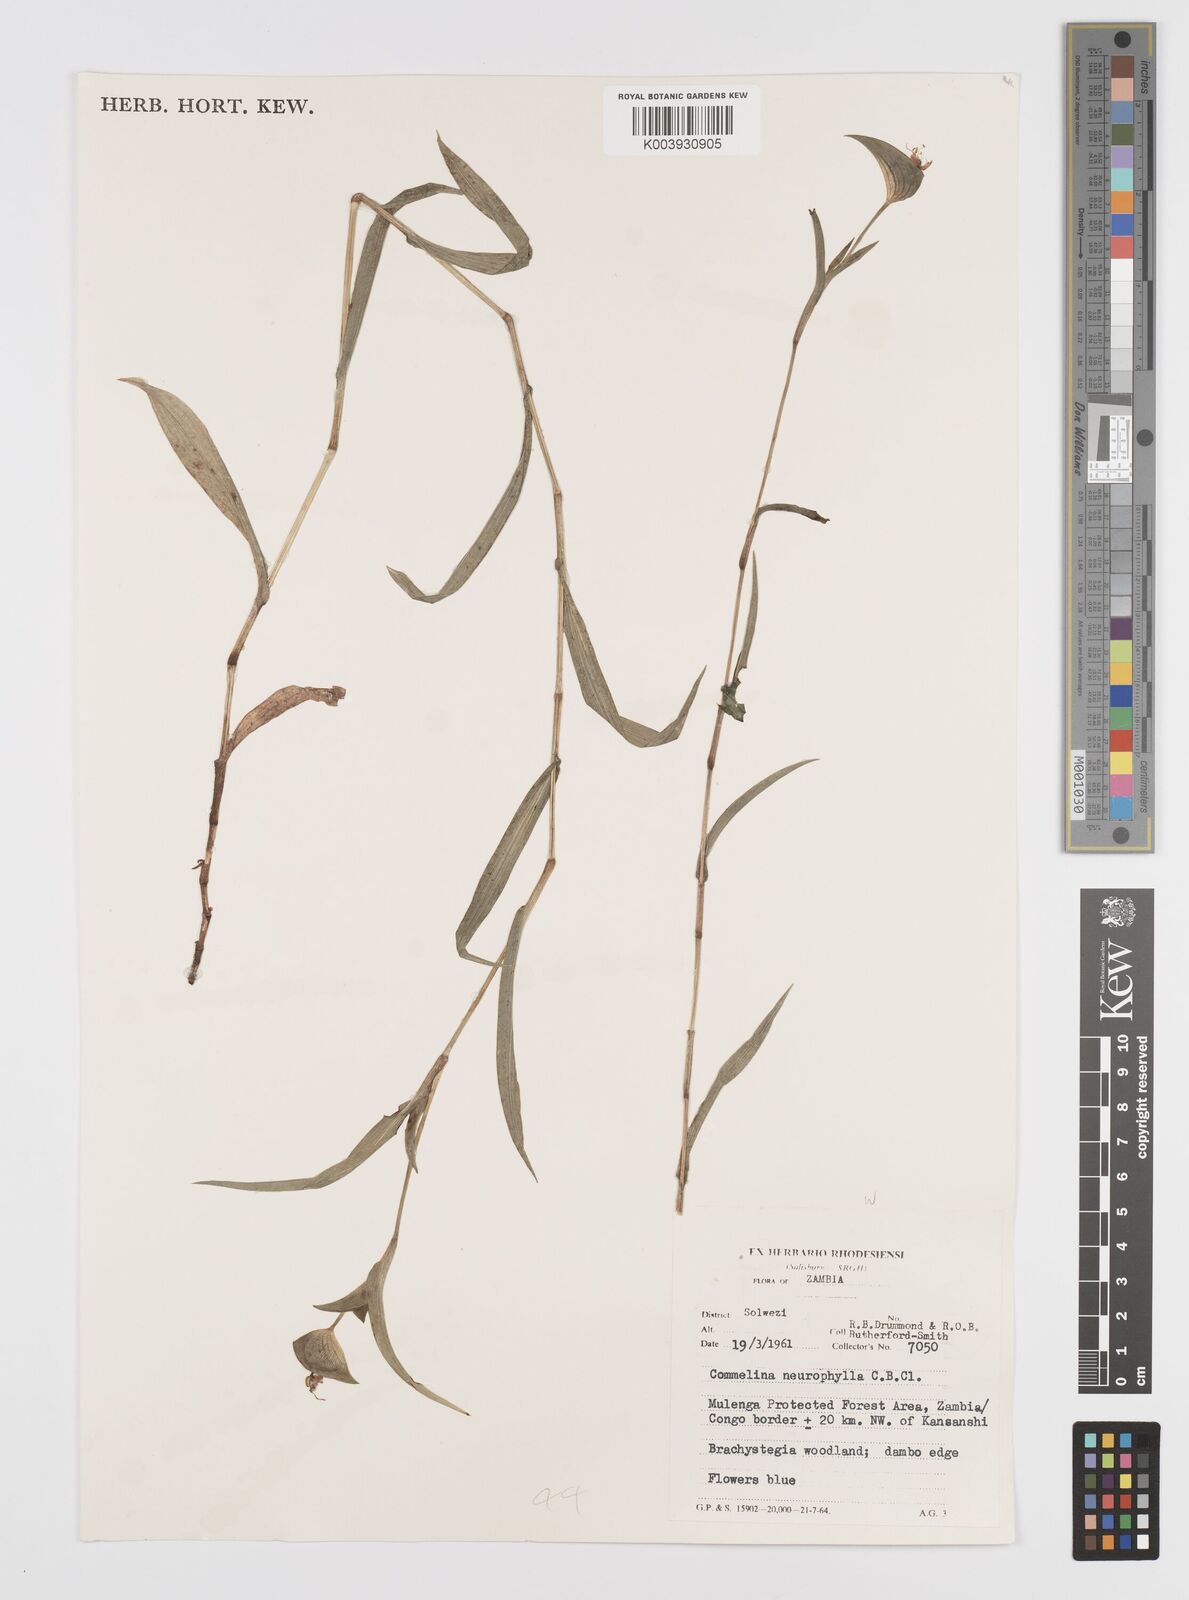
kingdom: Plantae
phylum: Tracheophyta
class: Liliopsida
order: Commelinales
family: Commelinaceae
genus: Commelina
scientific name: Commelina neurophylla
